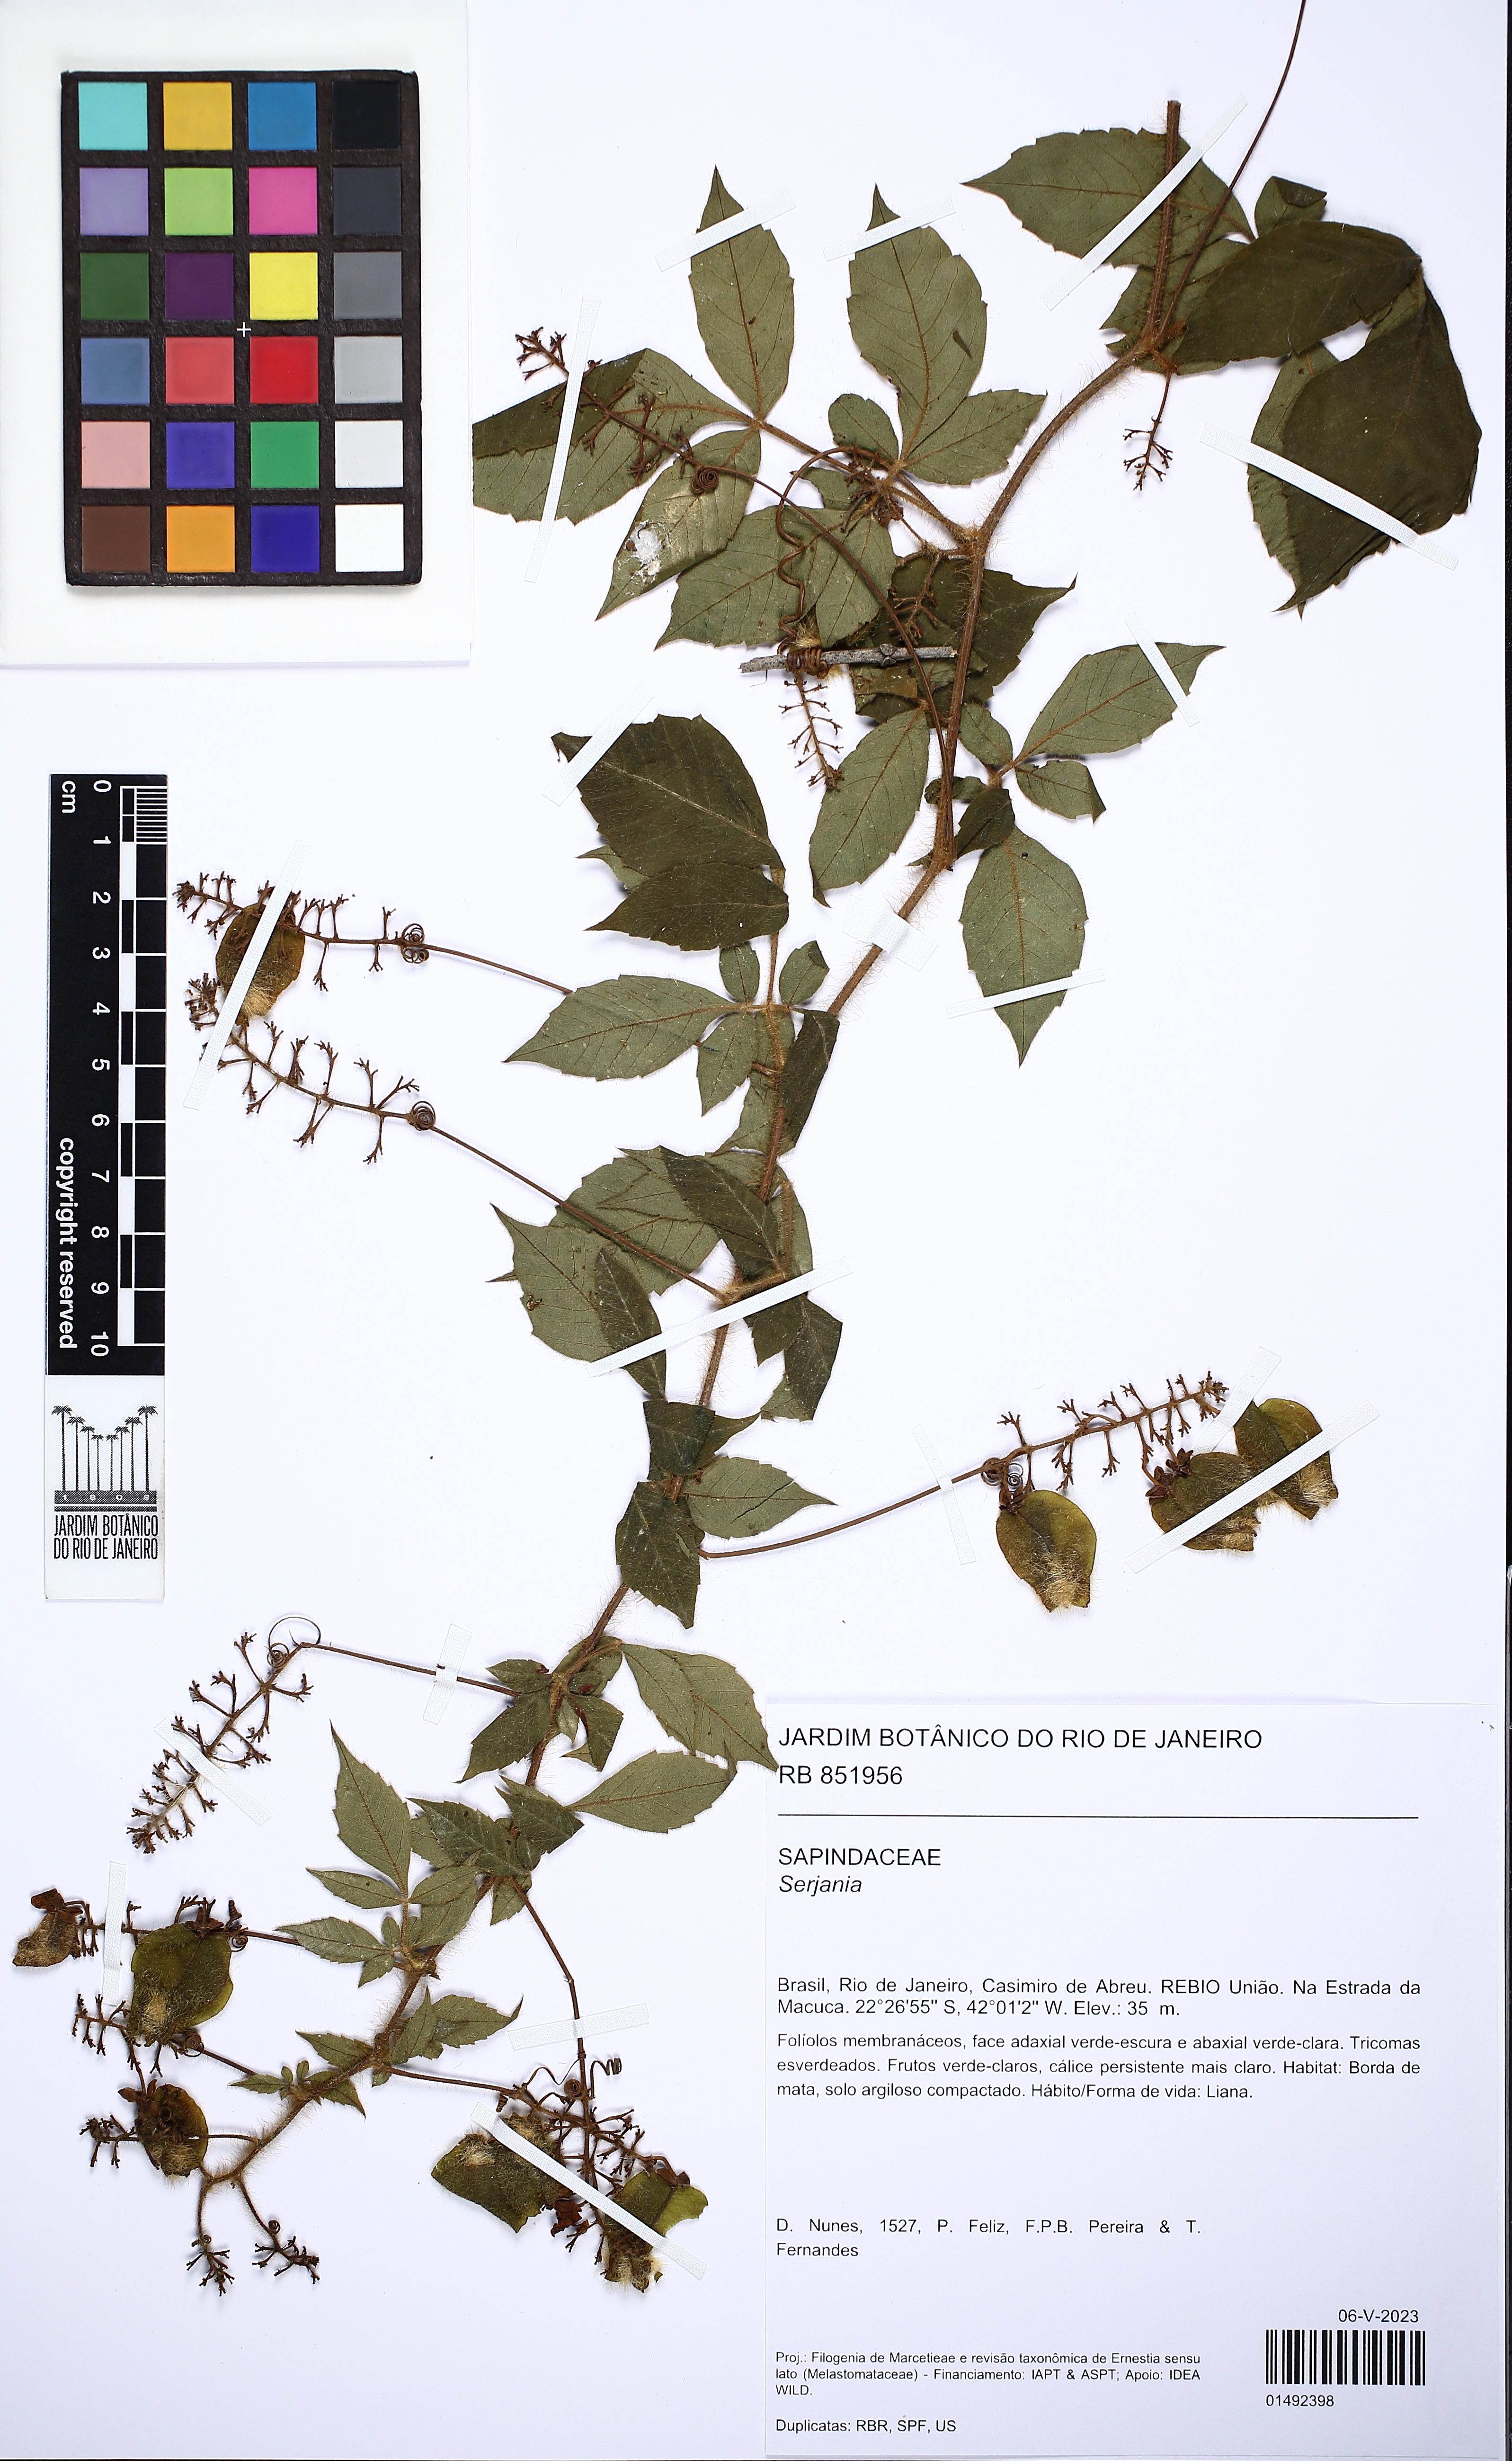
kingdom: Plantae
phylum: Tracheophyta
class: Magnoliopsida
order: Sapindales
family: Sapindaceae
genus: Serjania
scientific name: Serjania
